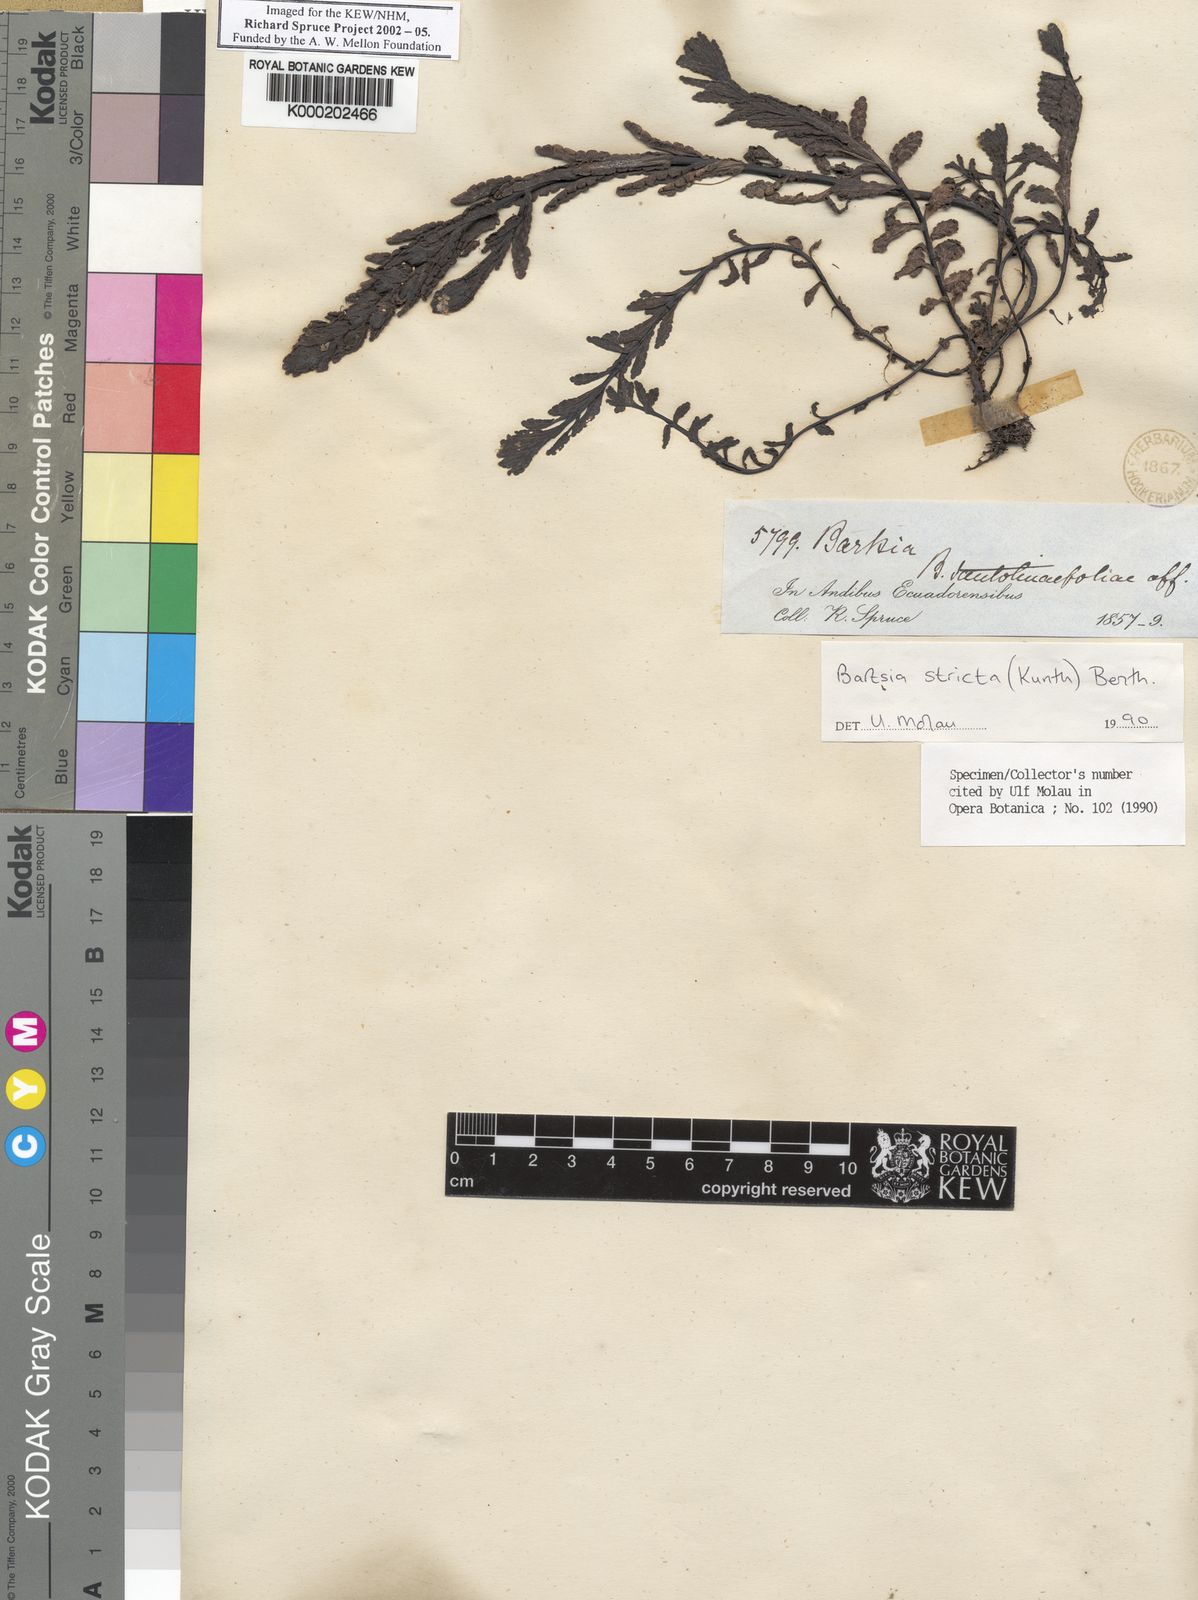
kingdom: Plantae
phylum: Tracheophyta
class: Magnoliopsida
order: Lamiales
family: Orobanchaceae
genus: Neobartsia
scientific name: Neobartsia stricta
